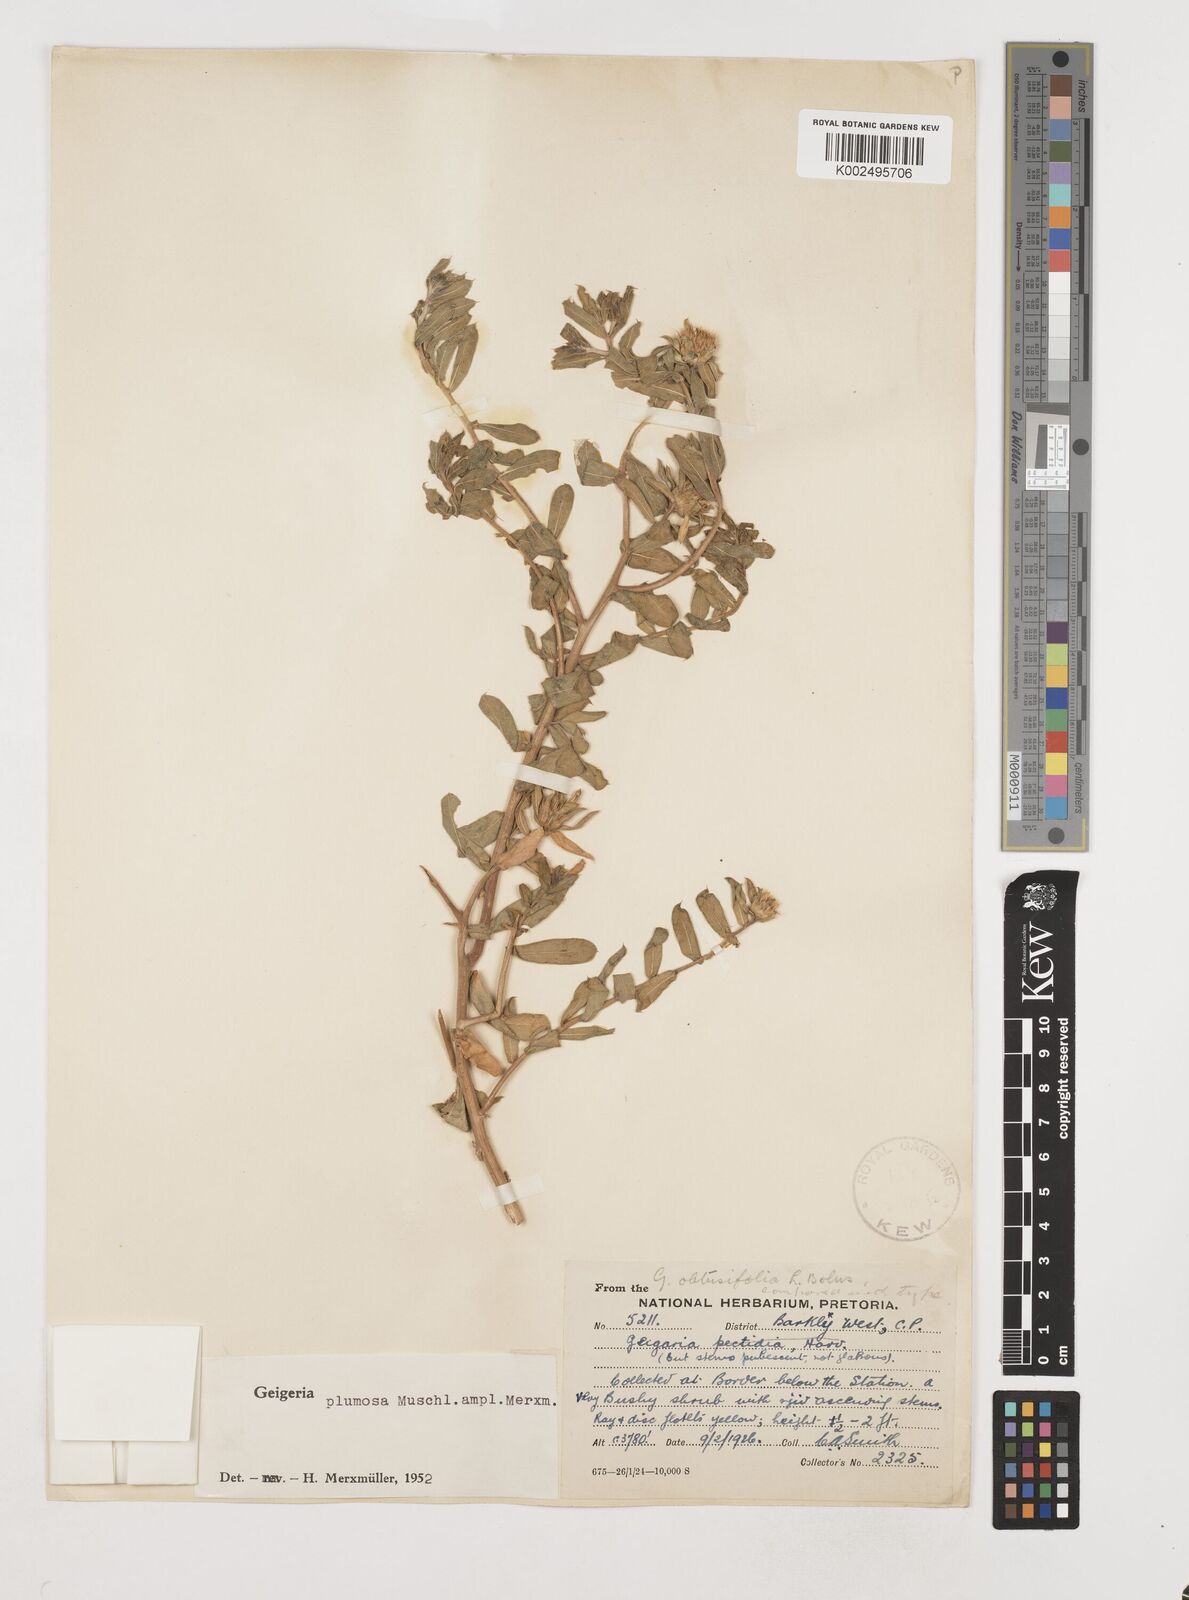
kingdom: Plantae
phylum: Tracheophyta
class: Magnoliopsida
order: Asterales
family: Asteraceae
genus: Geigeria
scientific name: Geigeria plumosa
